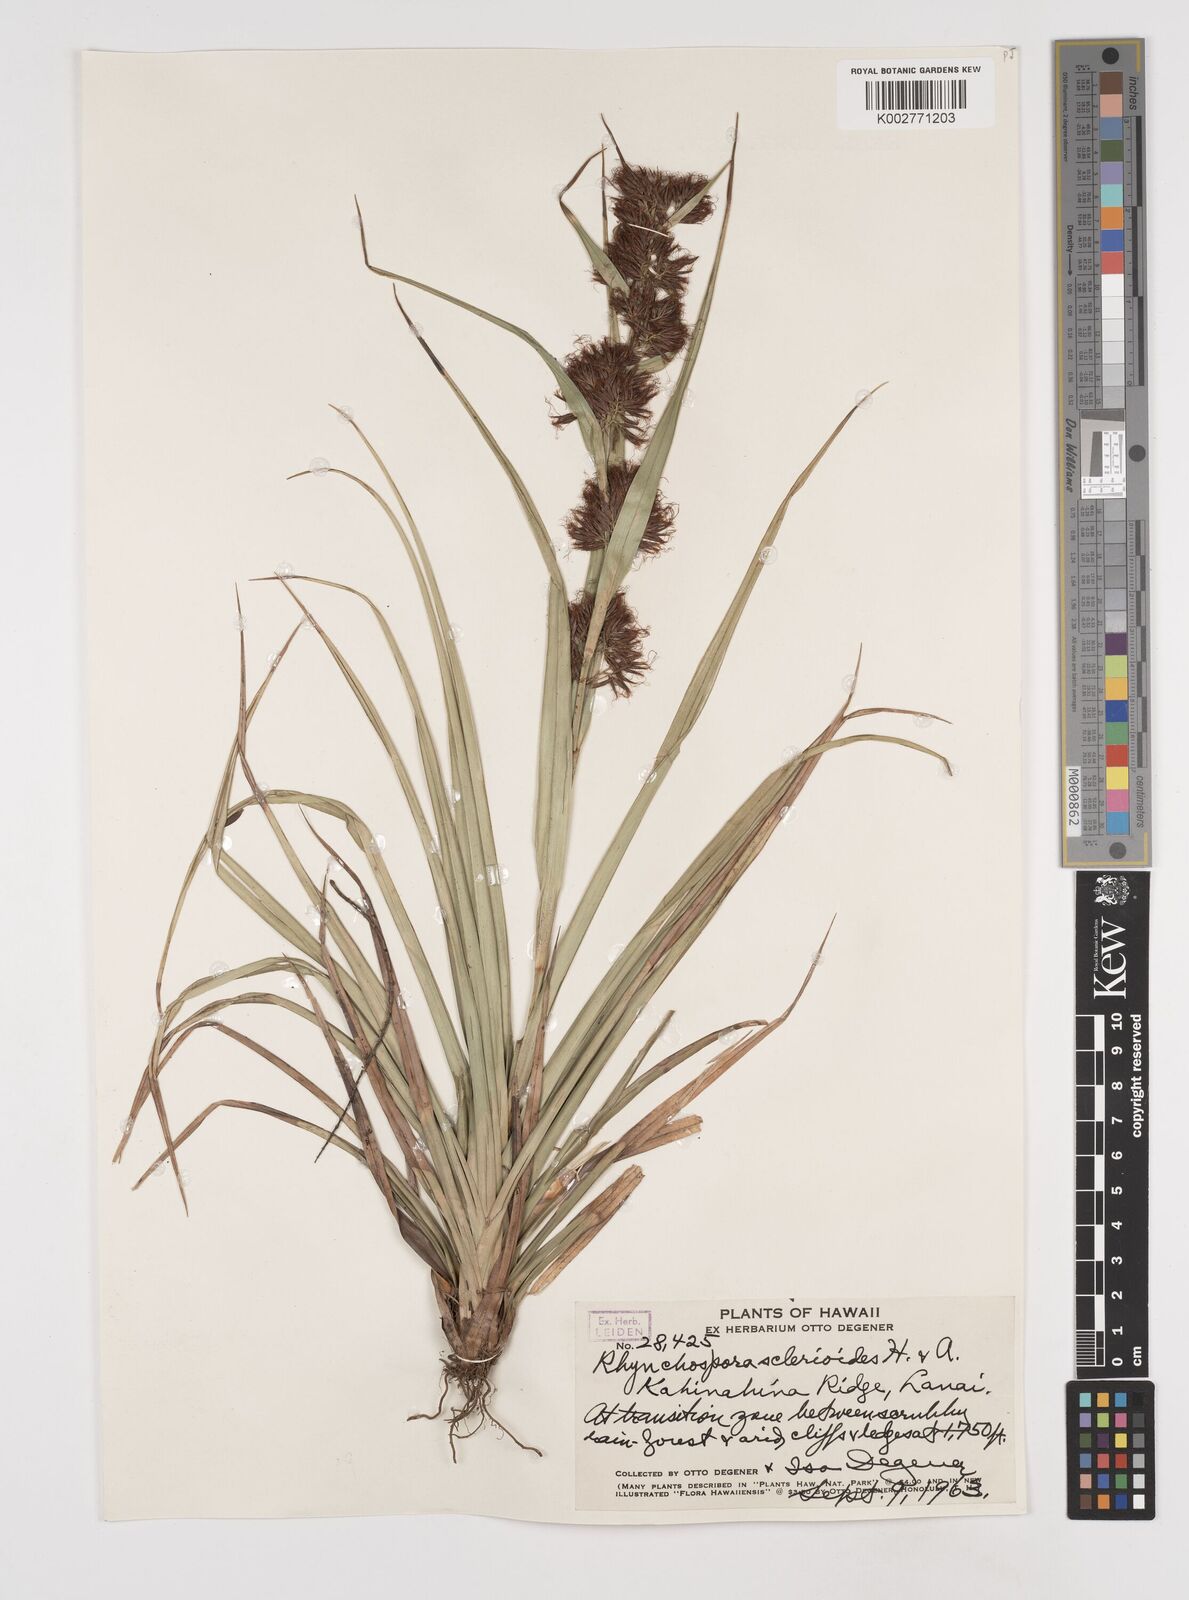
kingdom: Plantae
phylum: Tracheophyta
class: Liliopsida
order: Poales
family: Cyperaceae
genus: Rhynchospora
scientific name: Rhynchospora sclerioides
